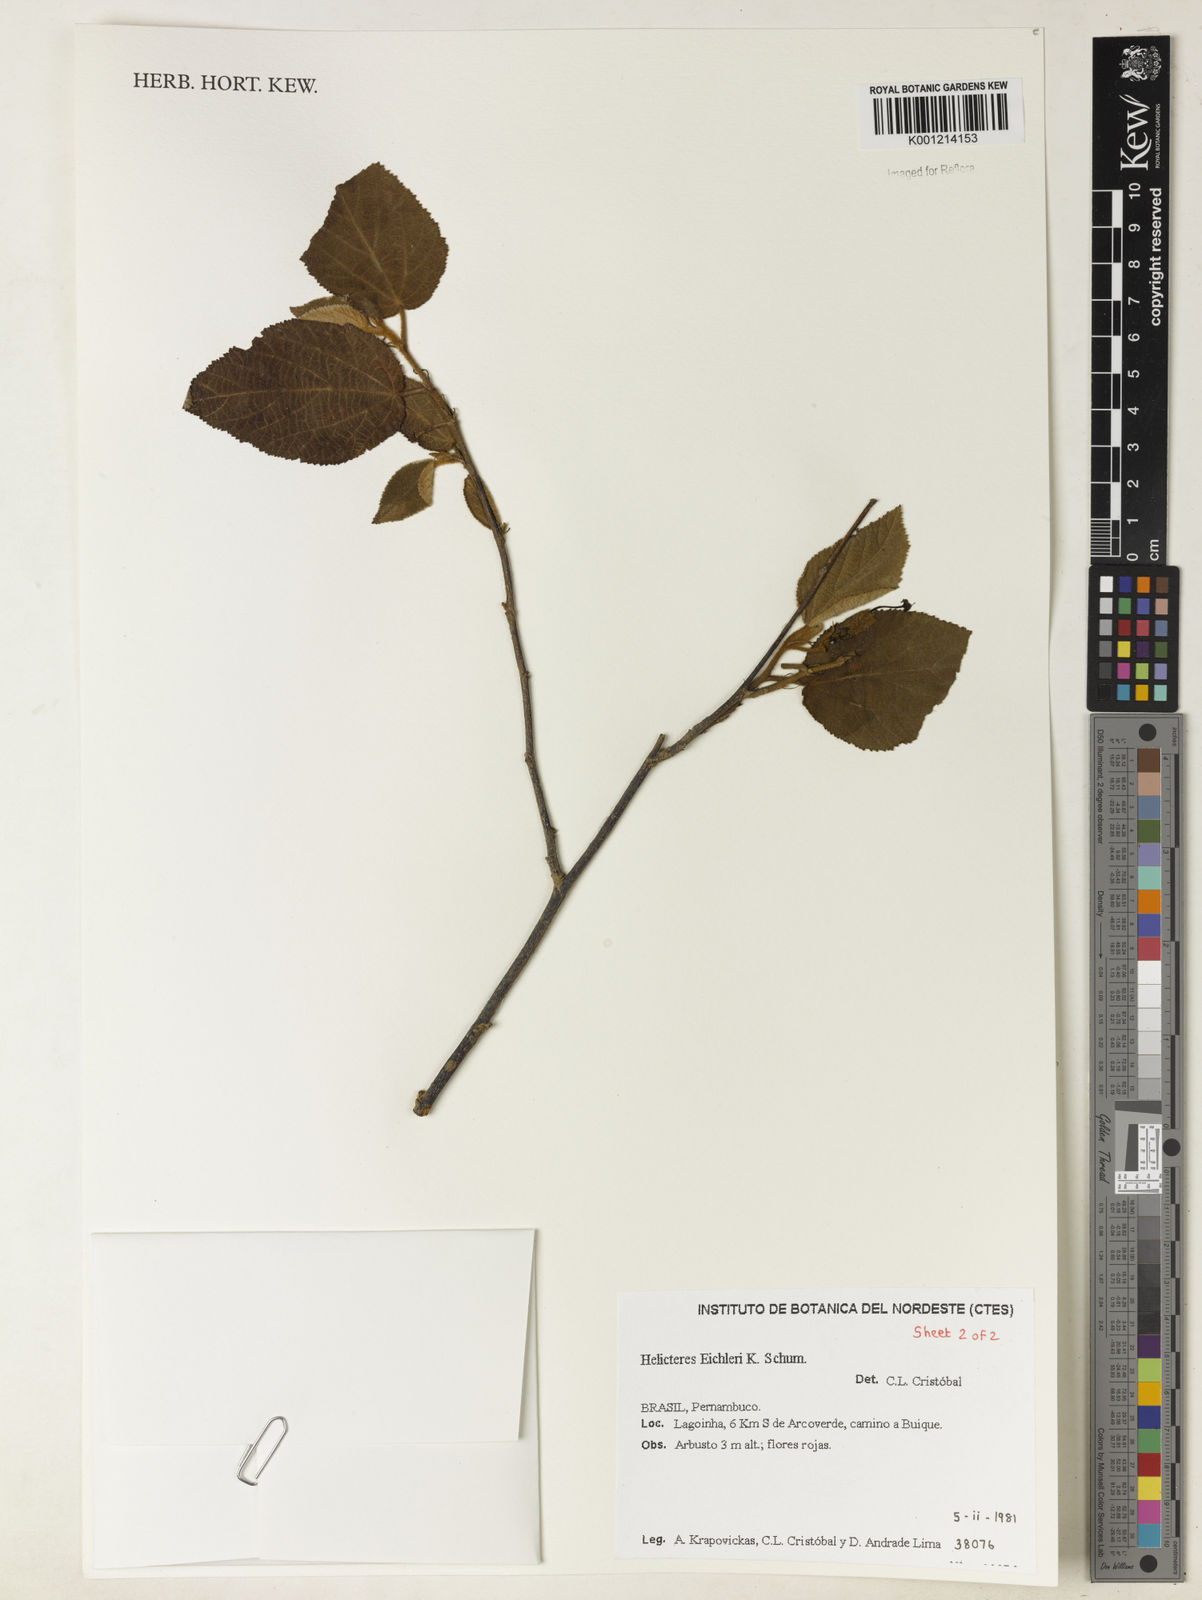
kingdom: Plantae
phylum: Tracheophyta
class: Magnoliopsida
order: Malvales
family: Malvaceae
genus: Helicteres
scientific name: Helicteres eichleri
